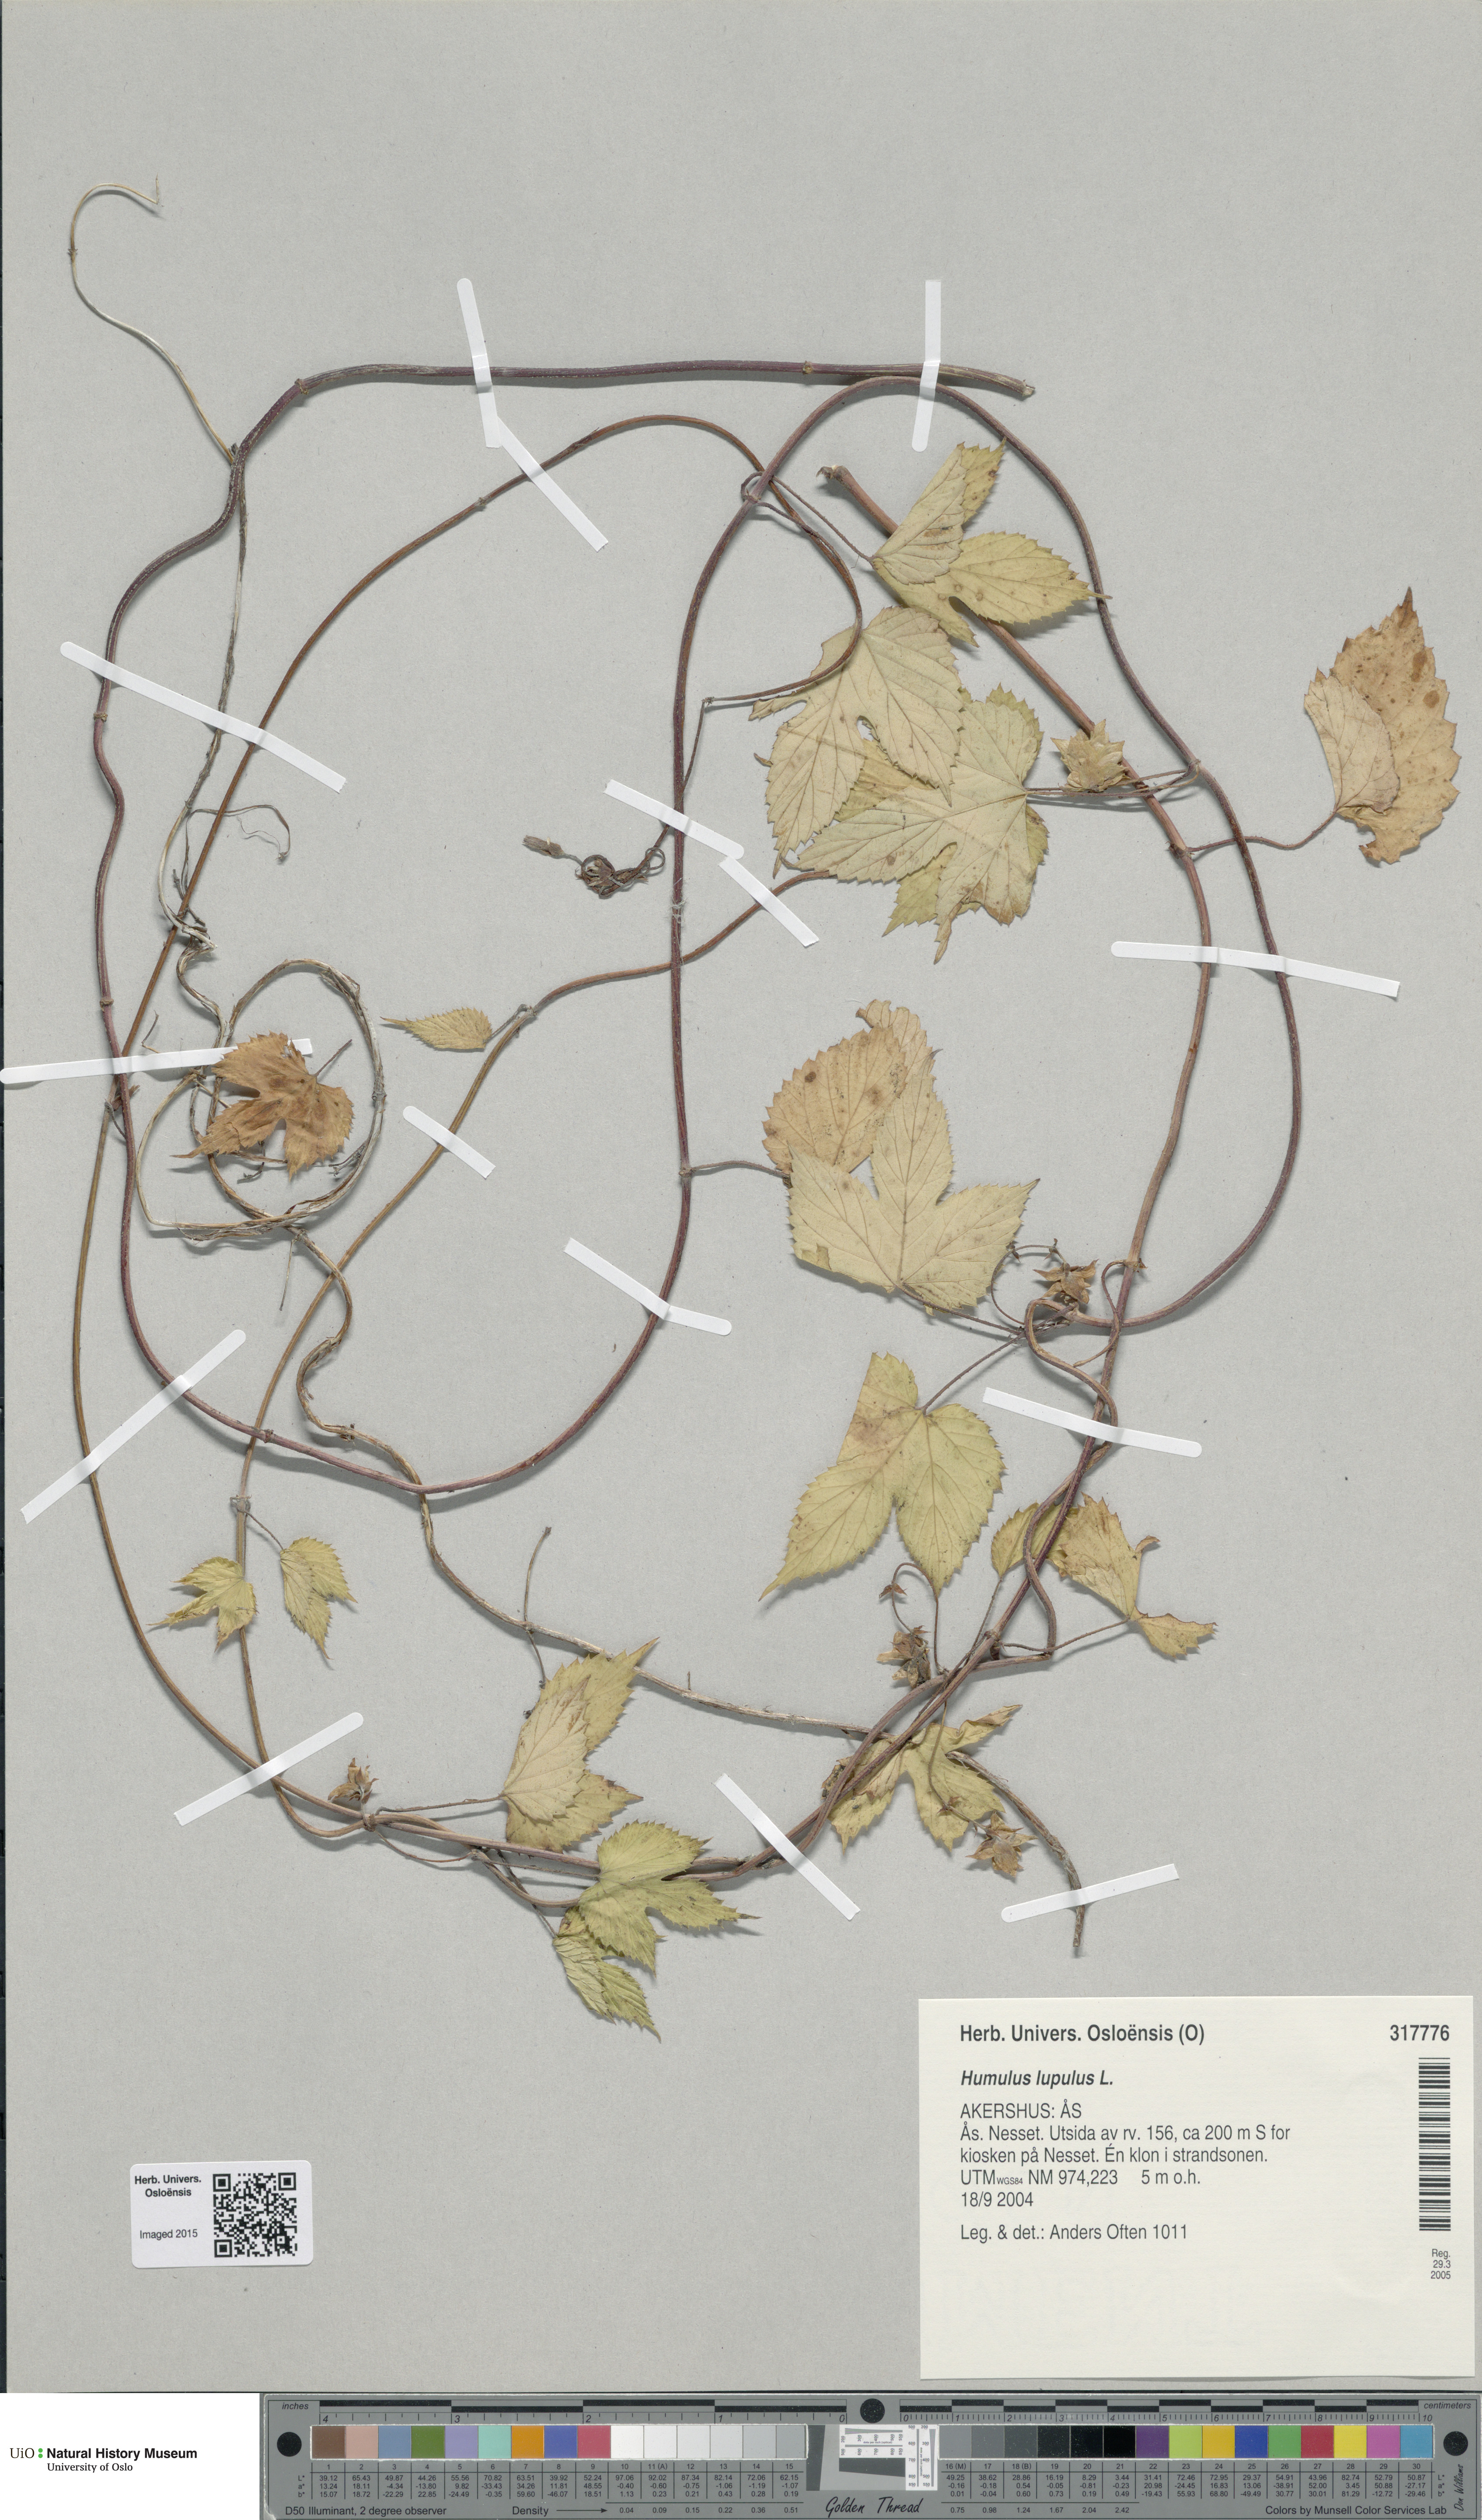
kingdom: Plantae
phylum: Tracheophyta
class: Magnoliopsida
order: Rosales
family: Cannabaceae
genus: Humulus
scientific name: Humulus lupulus
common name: Hop
